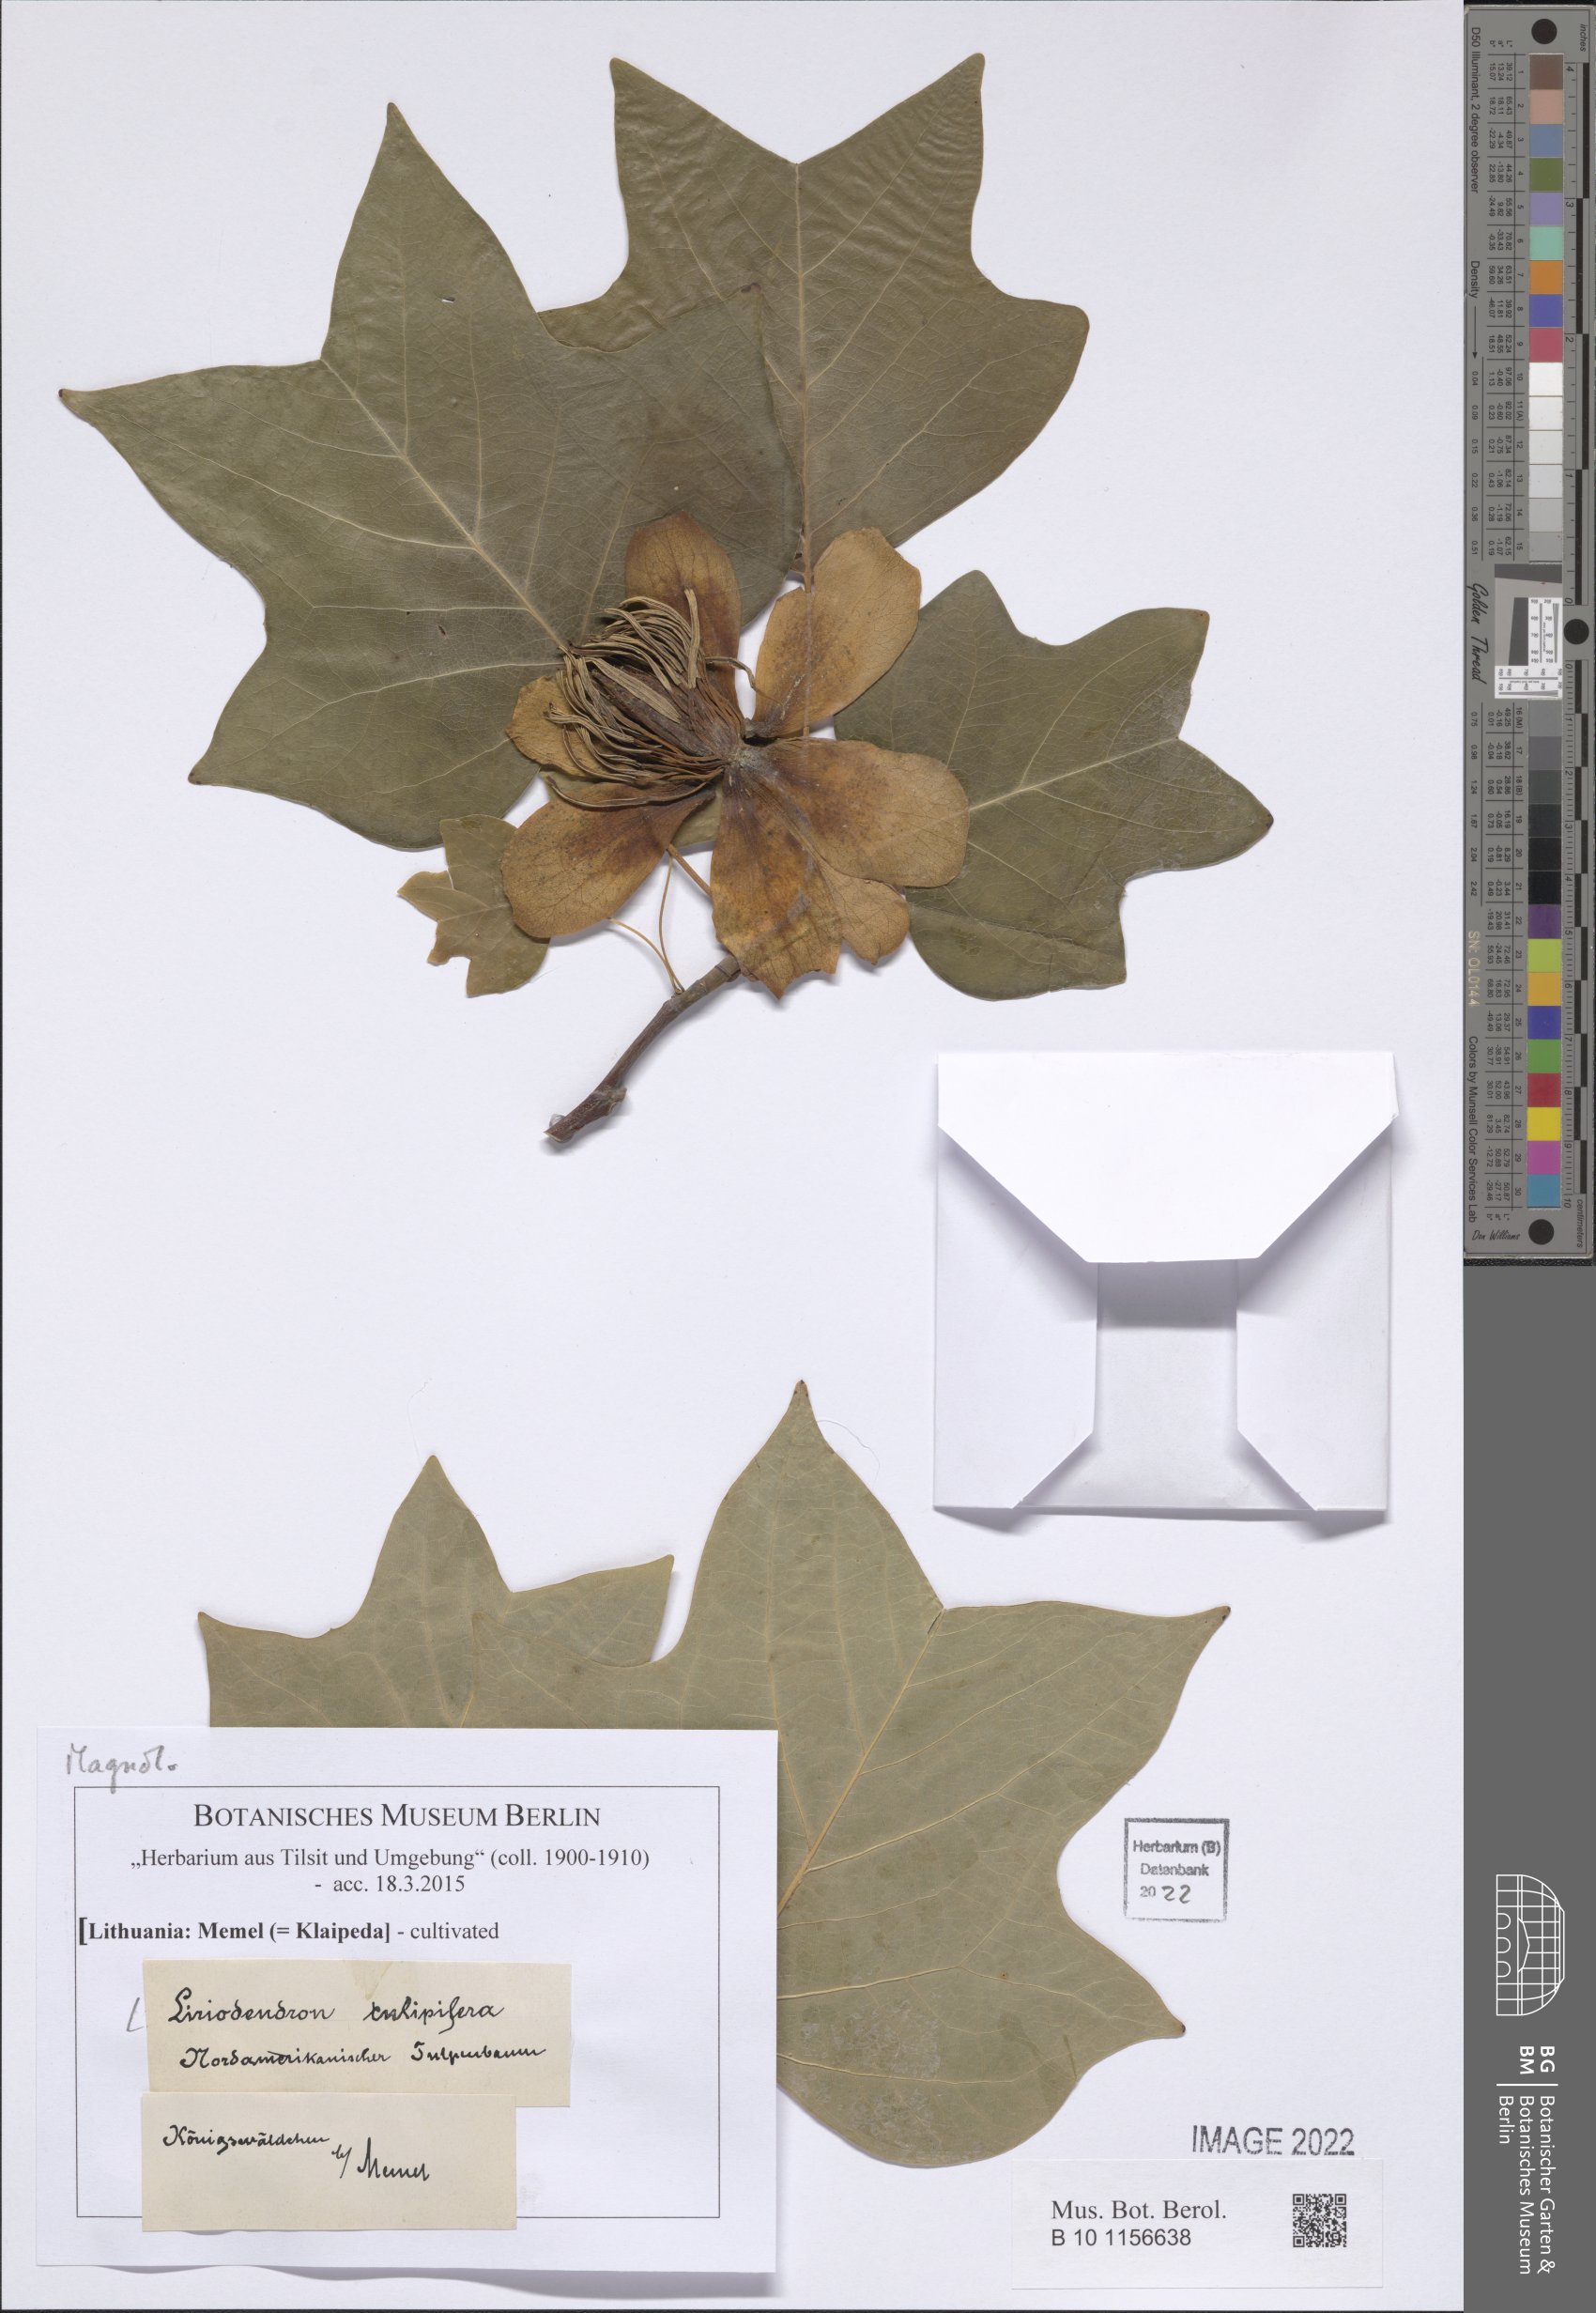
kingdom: Plantae
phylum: Tracheophyta
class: Magnoliopsida
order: Magnoliales
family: Magnoliaceae
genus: Liriodendron
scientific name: Liriodendron tulipifera
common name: Tulip tree
